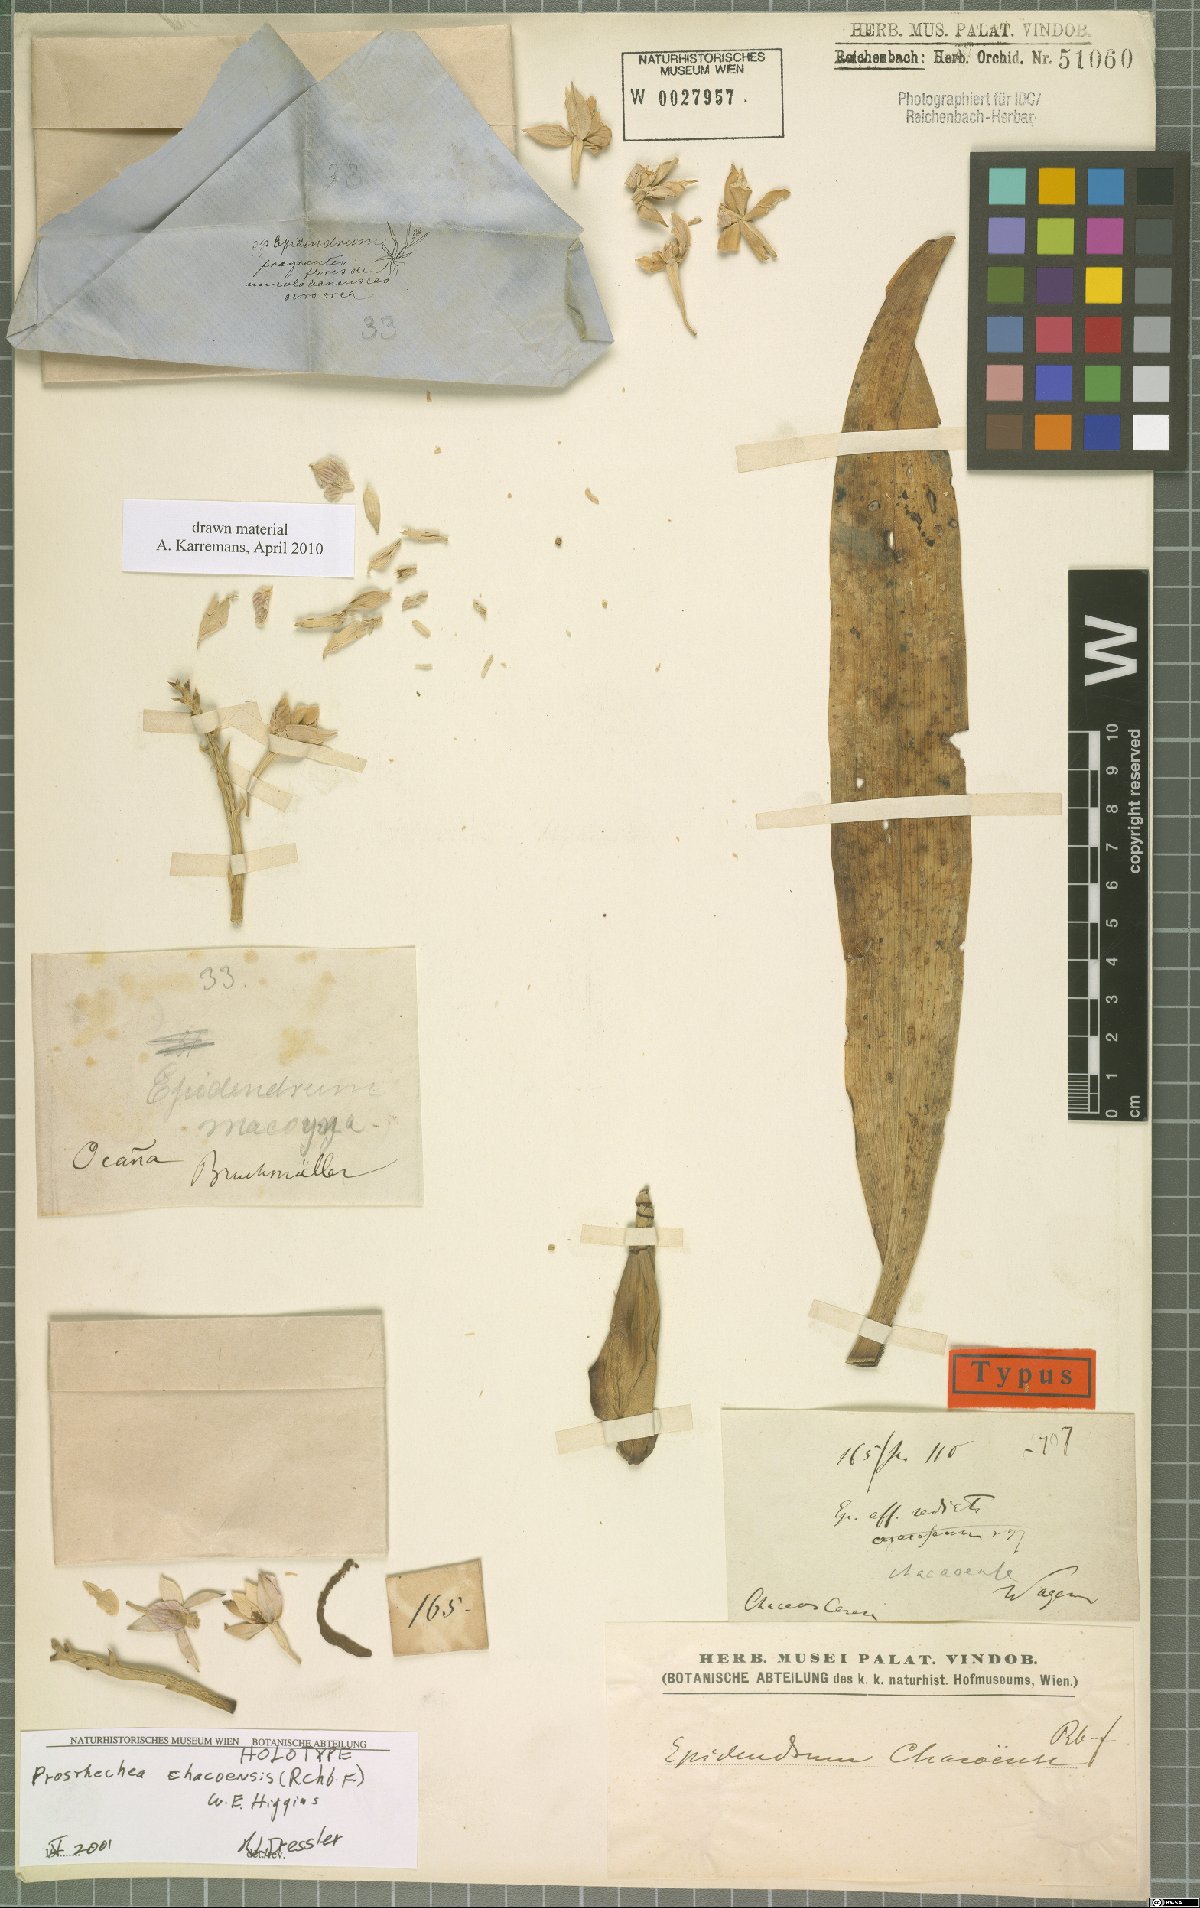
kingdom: Plantae
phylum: Tracheophyta
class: Liliopsida
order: Asparagales
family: Orchidaceae
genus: Prosthechea
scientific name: Prosthechea chacaoensis
